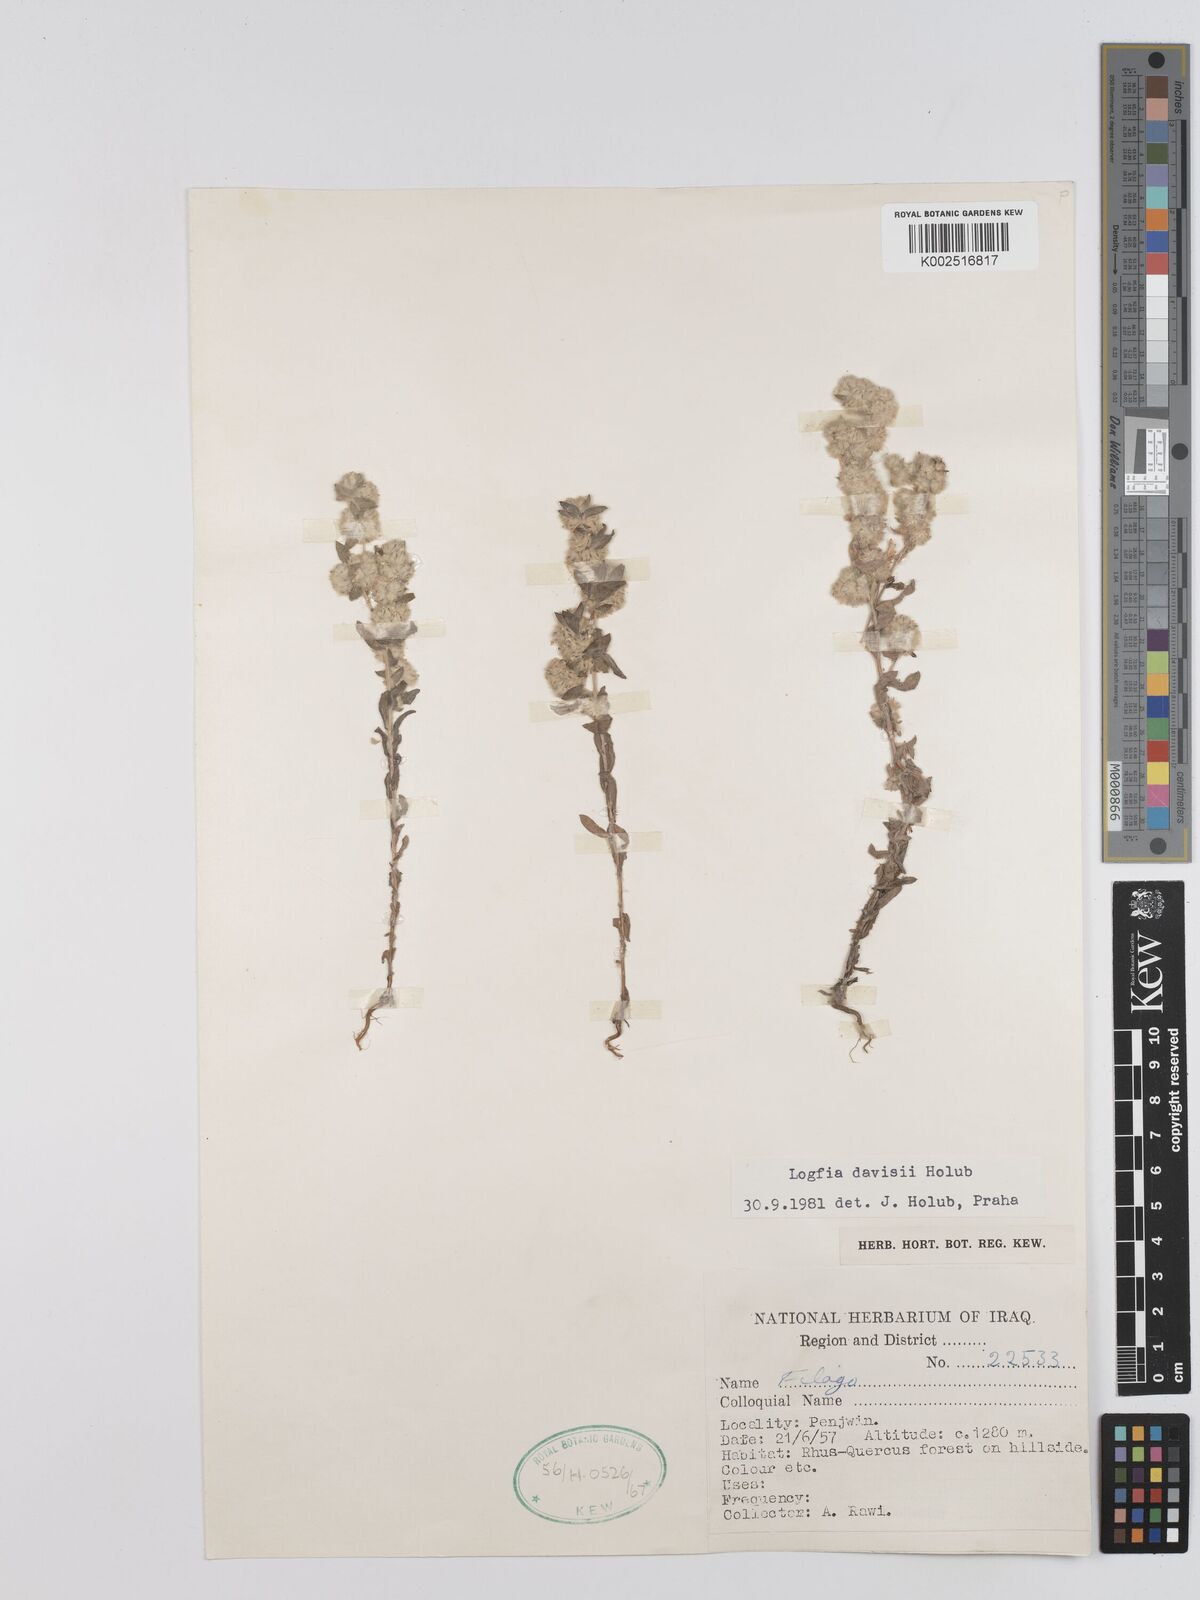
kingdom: Plantae
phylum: Tracheophyta
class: Magnoliopsida
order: Asterales
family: Asteraceae
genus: Filago
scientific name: Filago arvensis
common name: Field cudweed
